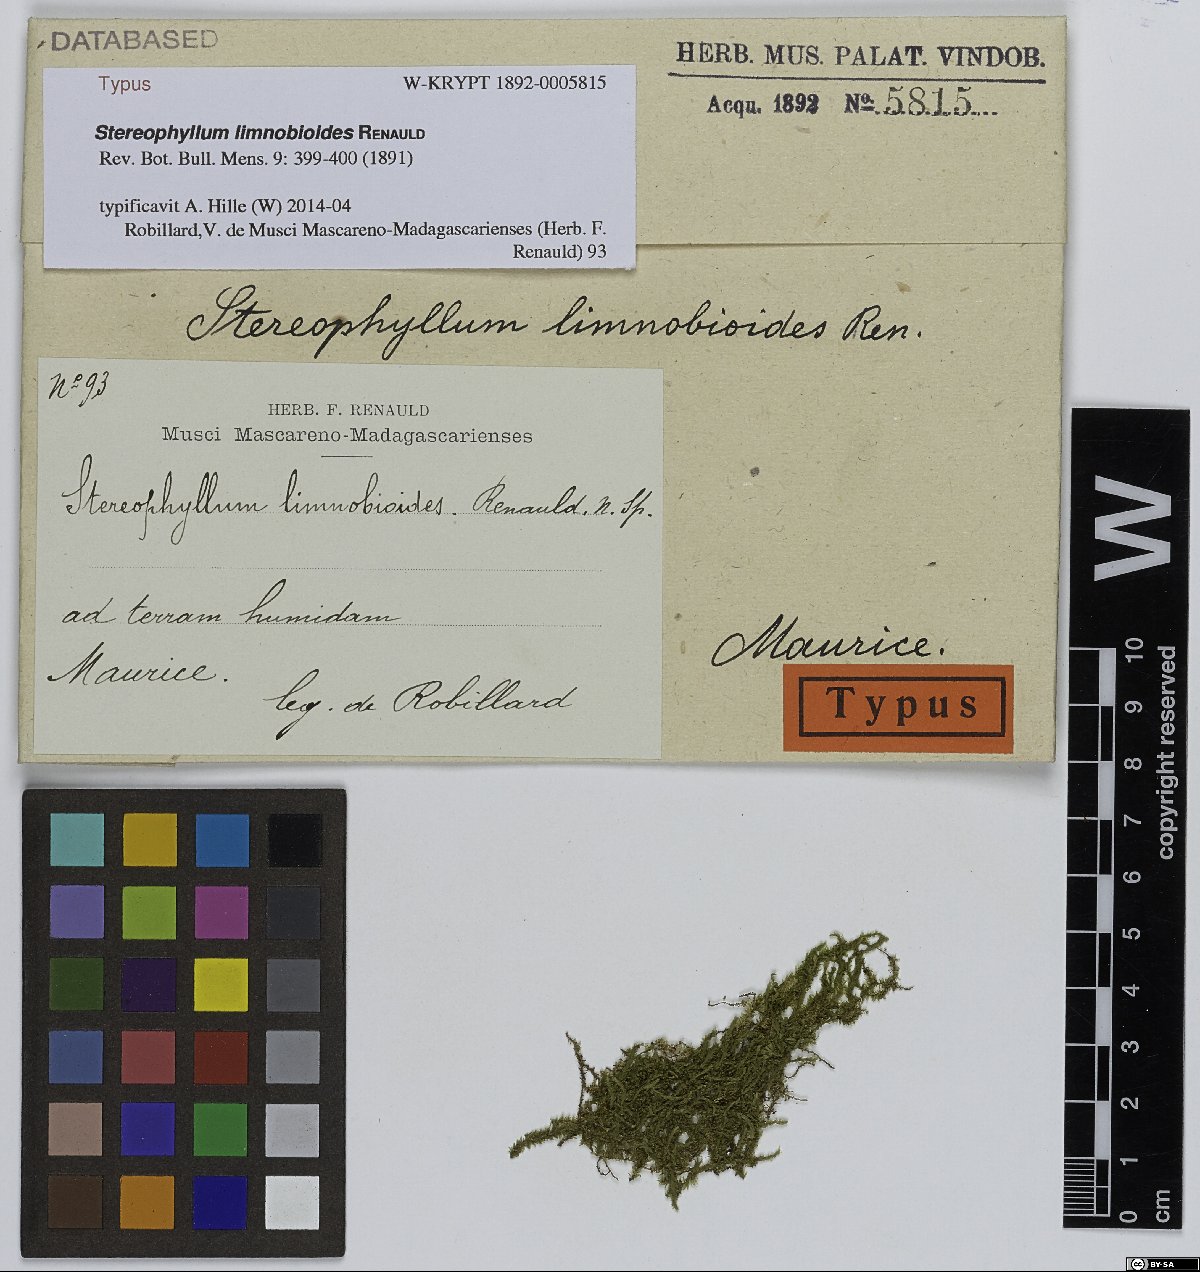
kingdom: Plantae
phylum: Bryophyta
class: Bryopsida
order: Hypnales
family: Stereophyllaceae
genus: Stereophyllum
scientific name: Stereophyllum radiculosum
